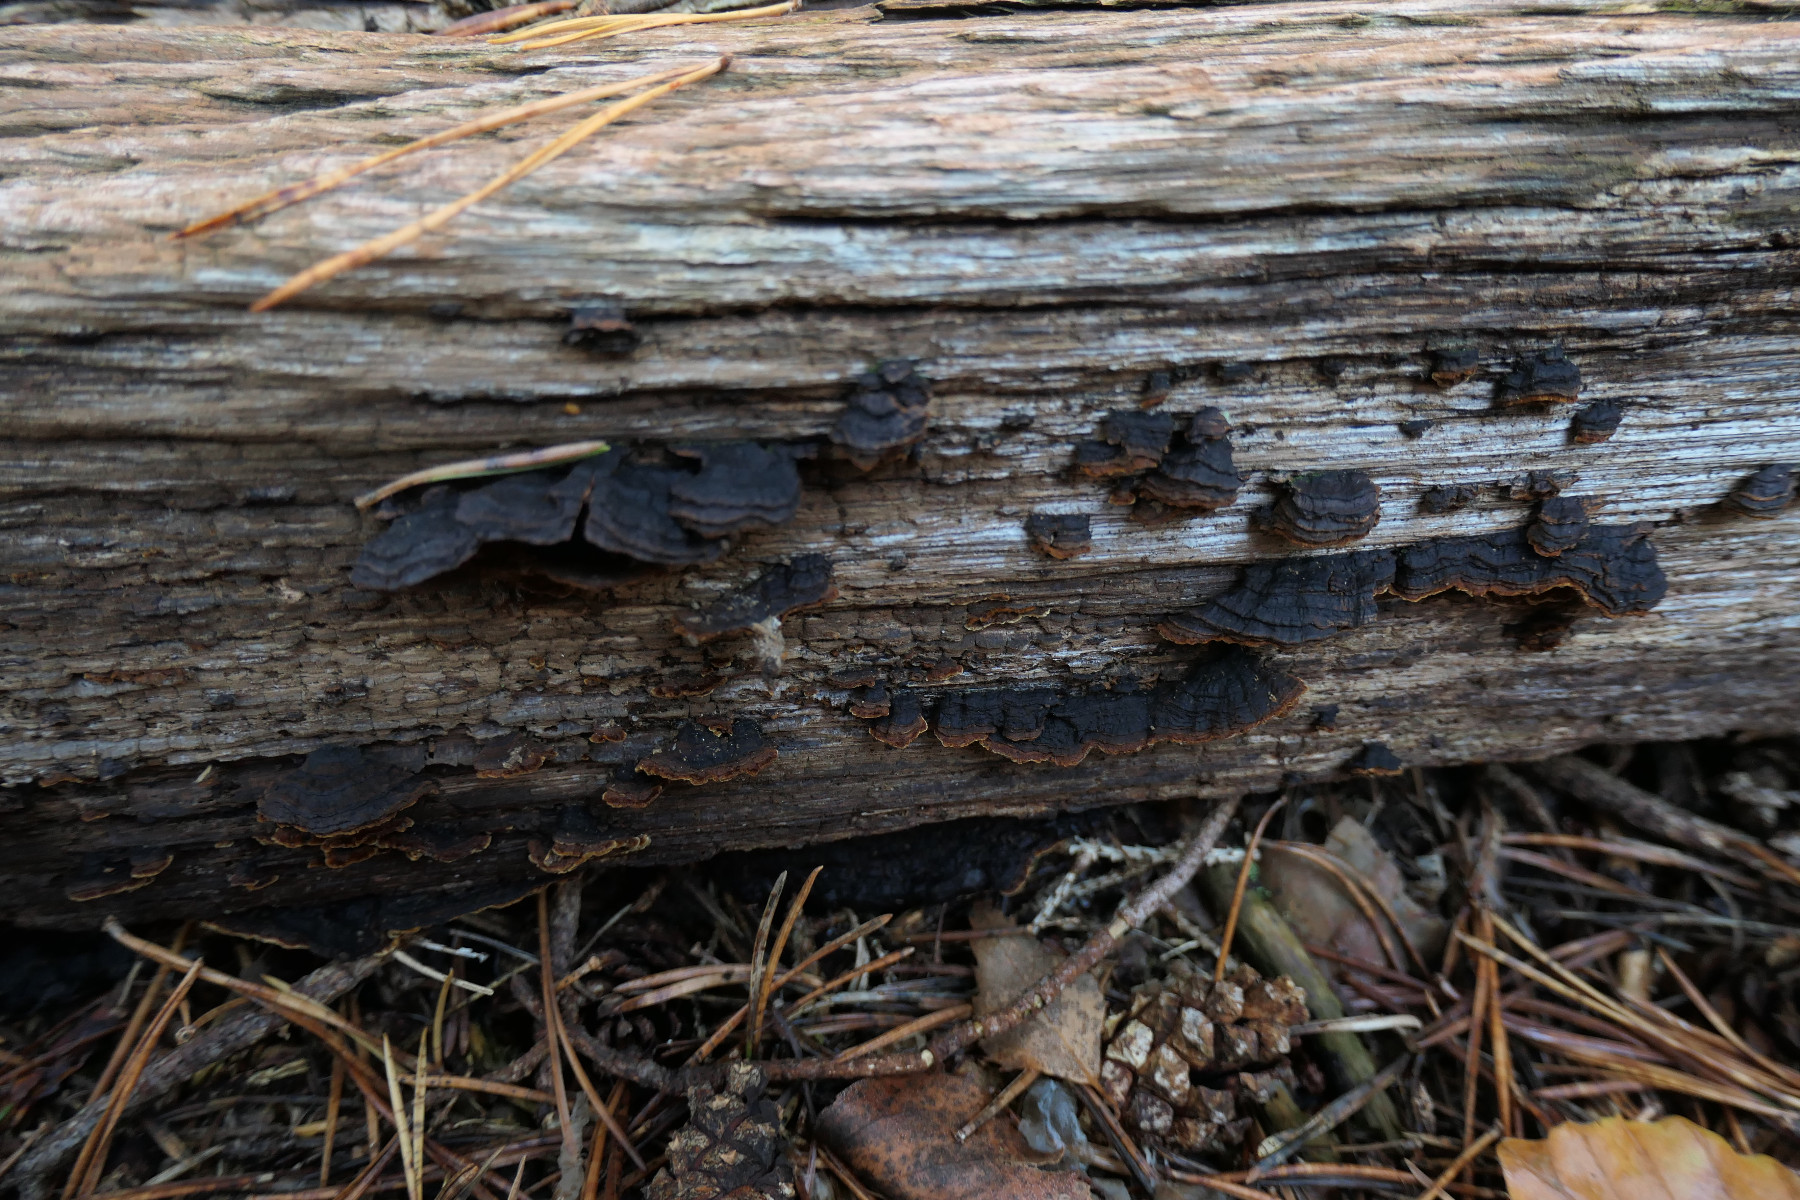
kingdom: Fungi
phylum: Basidiomycota
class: Agaricomycetes
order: Hymenochaetales
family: Hymenochaetaceae
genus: Hymenochaete
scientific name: Hymenochaete rubiginosa
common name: stiv ruslædersvamp
